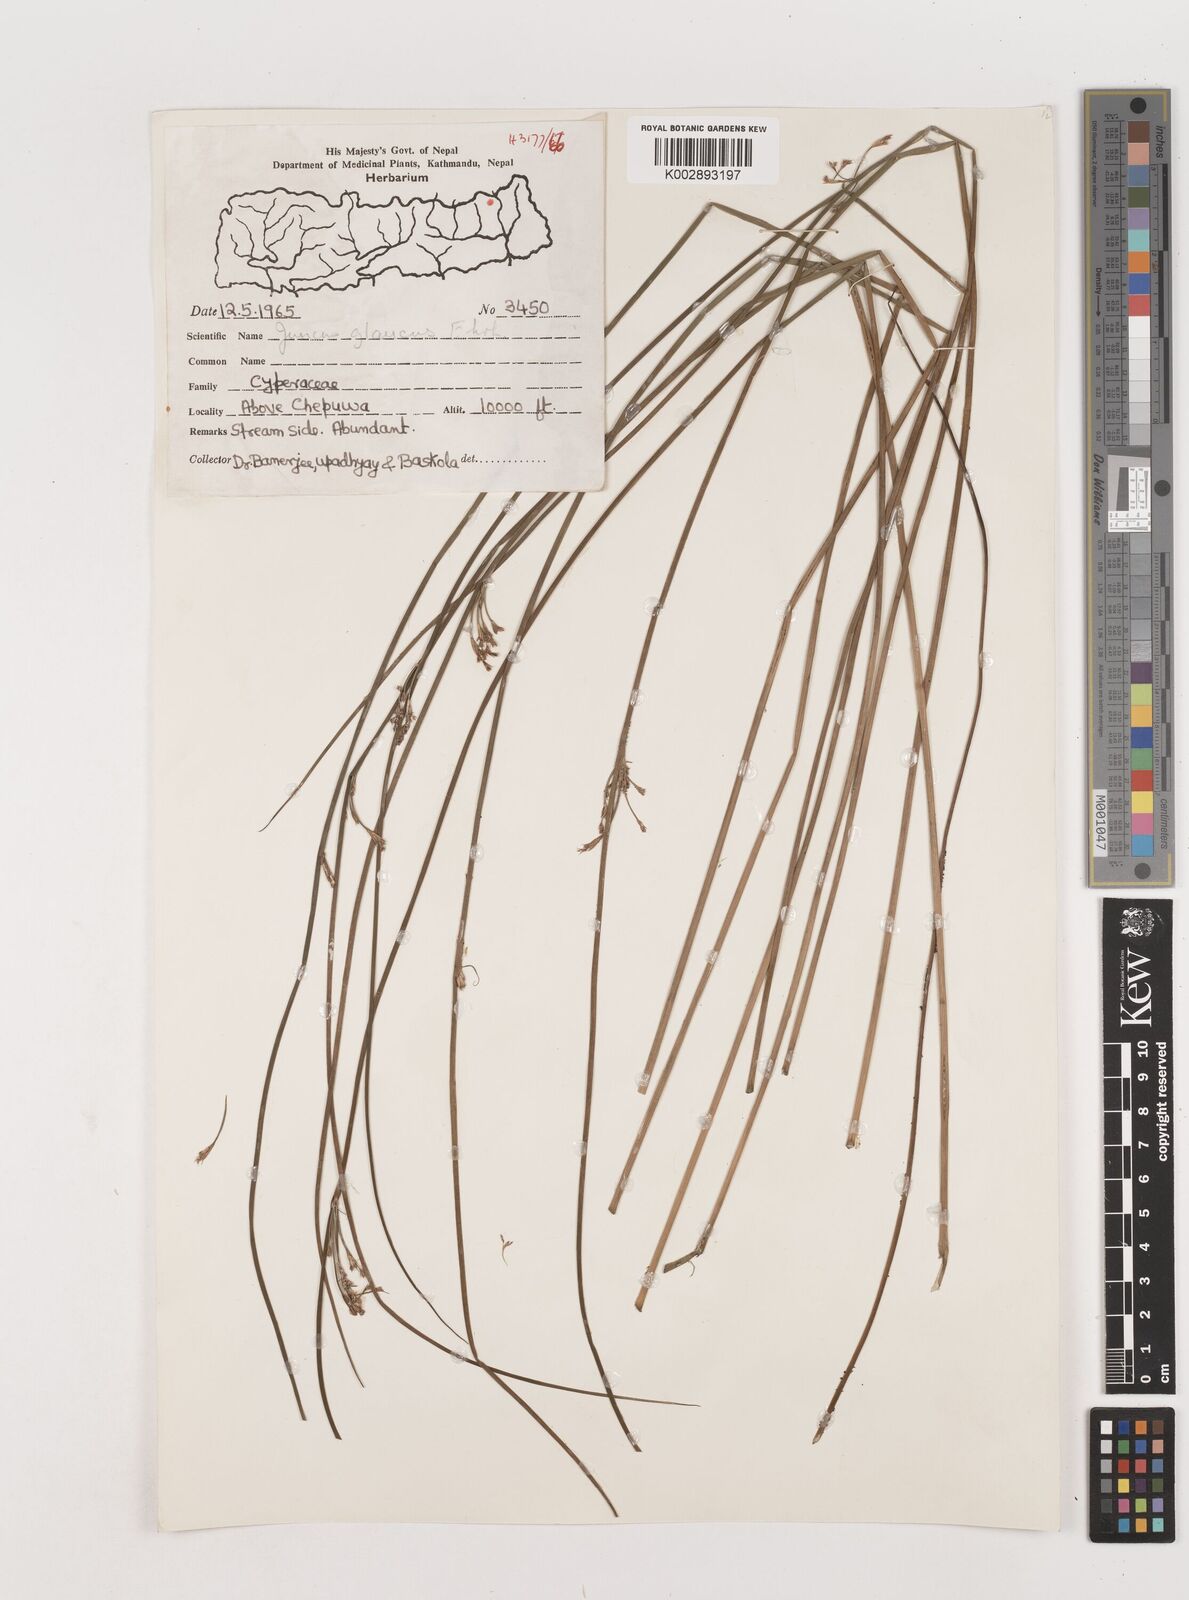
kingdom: Plantae
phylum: Tracheophyta
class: Liliopsida
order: Poales
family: Juncaceae
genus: Juncus
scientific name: Juncus inflexus
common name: Hard rush
